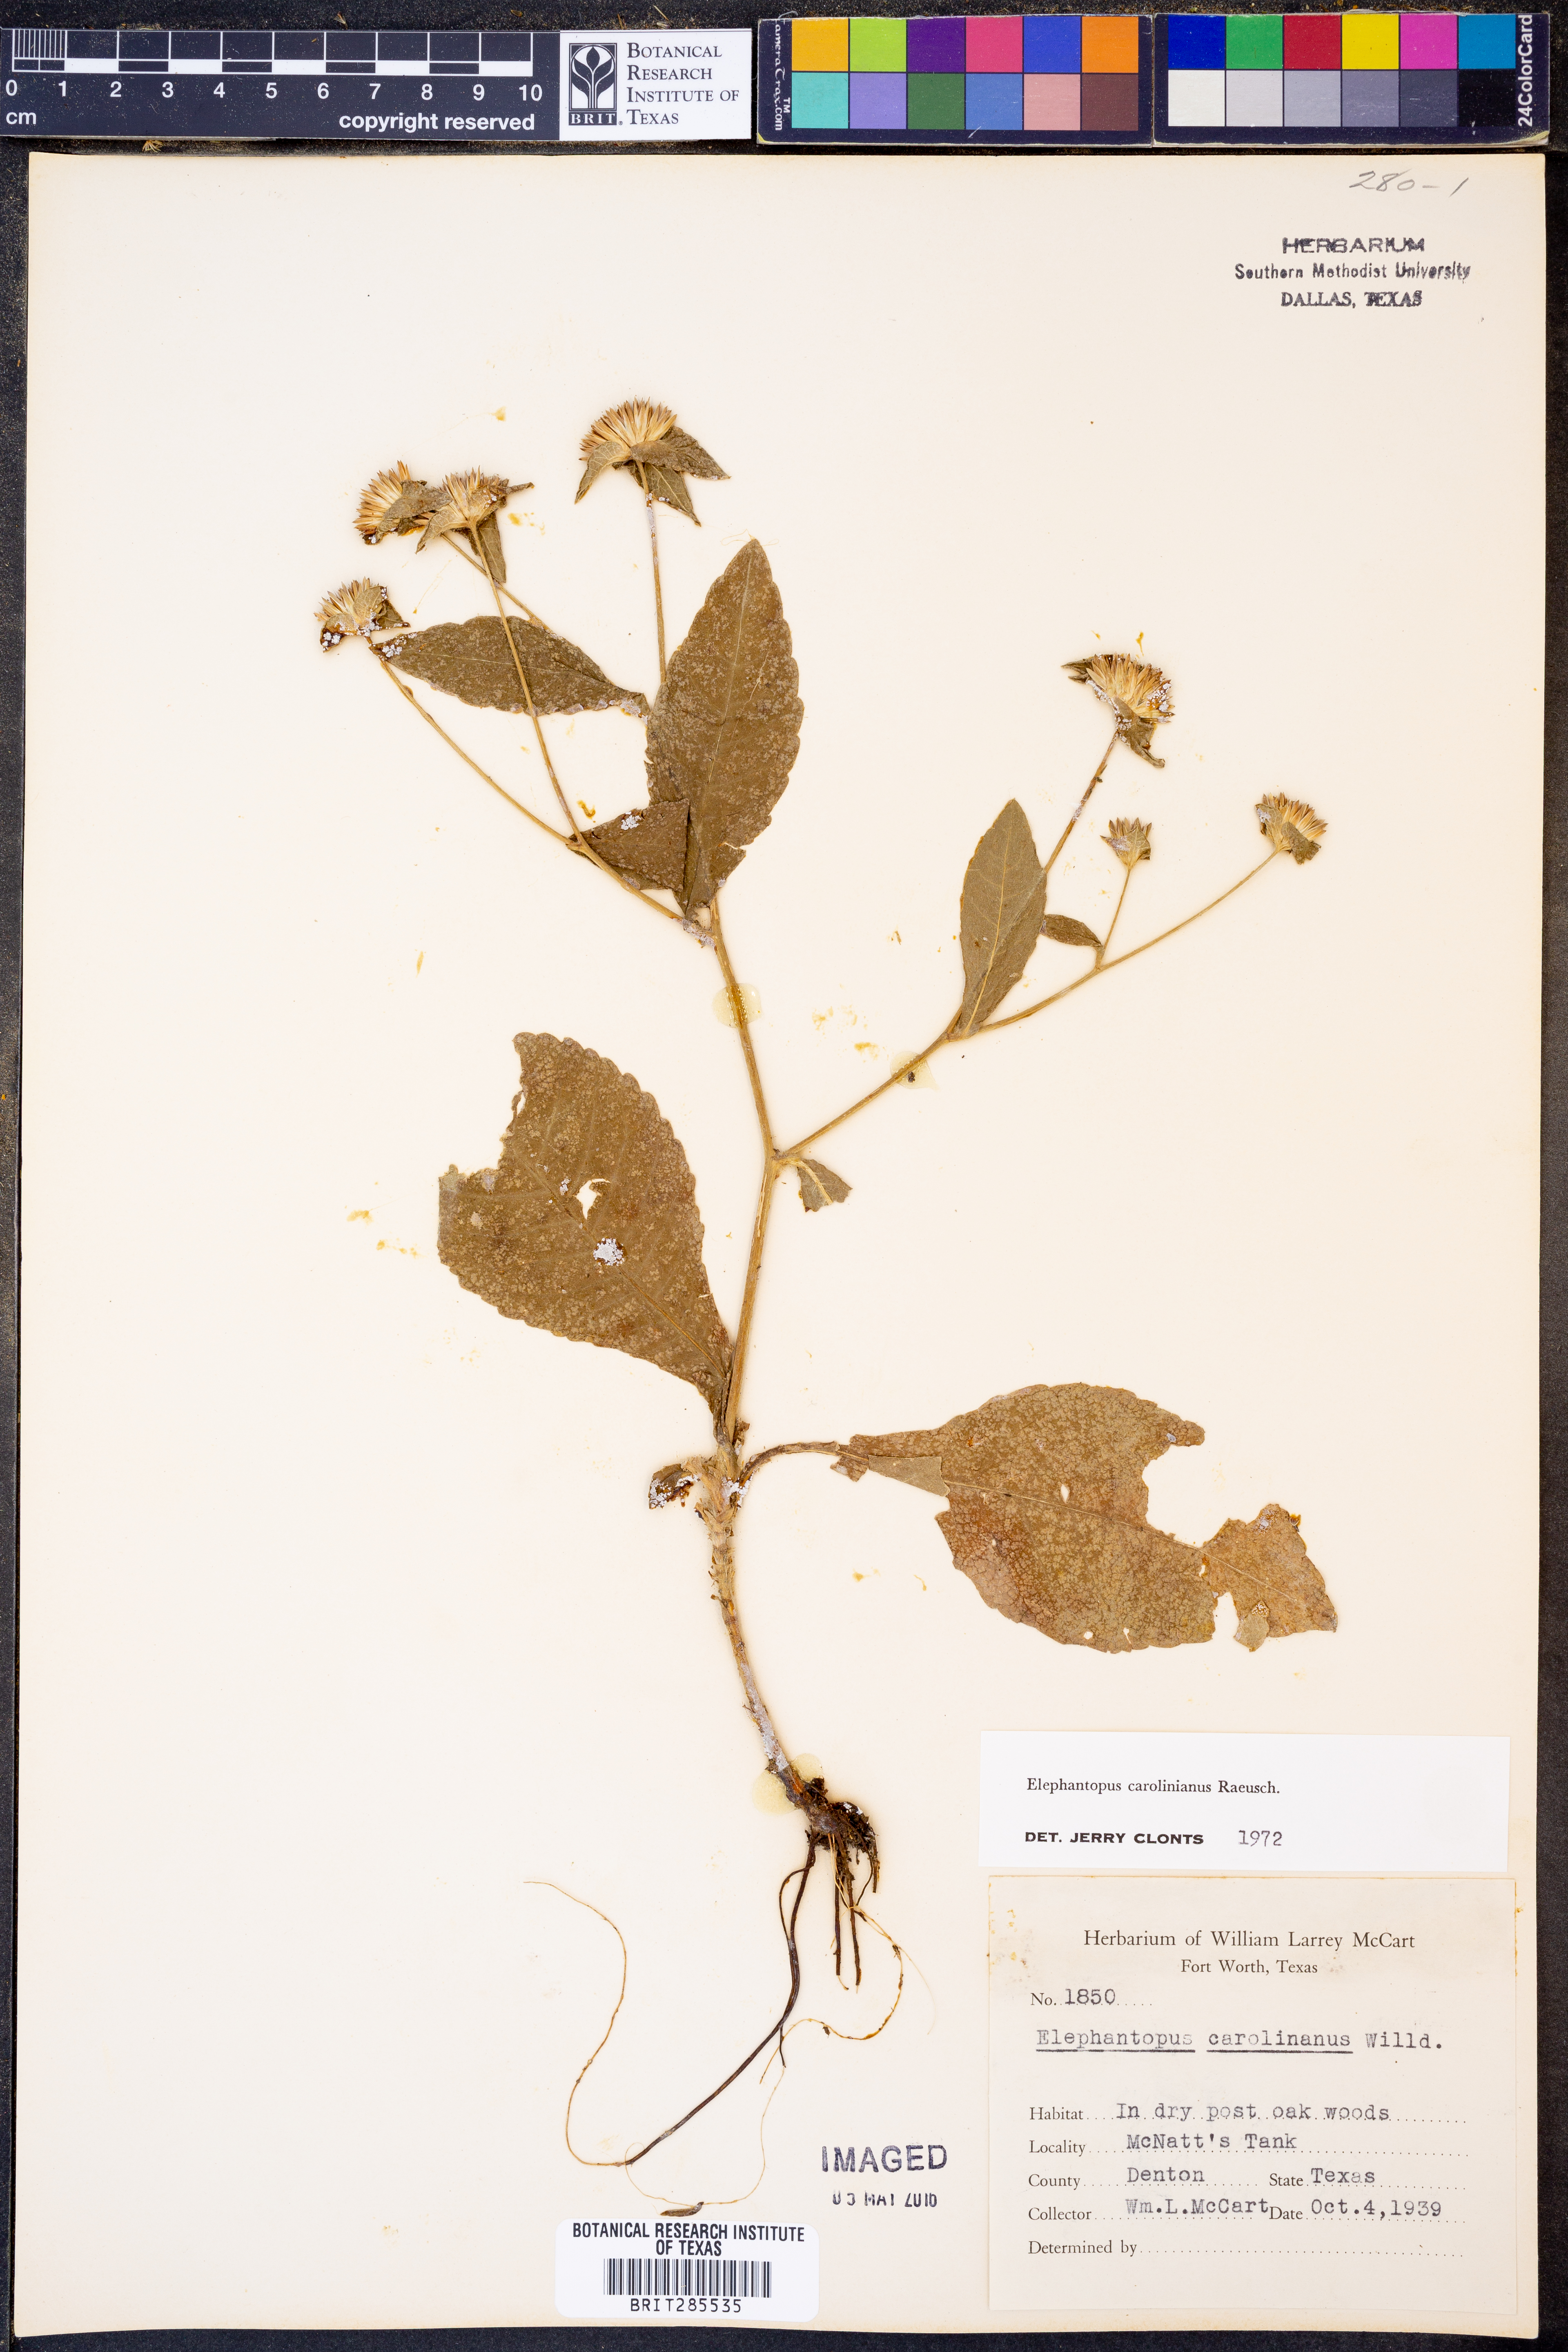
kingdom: Plantae
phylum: Tracheophyta
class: Magnoliopsida
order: Asterales
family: Asteraceae
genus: Elephantopus
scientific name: Elephantopus carolinianus
